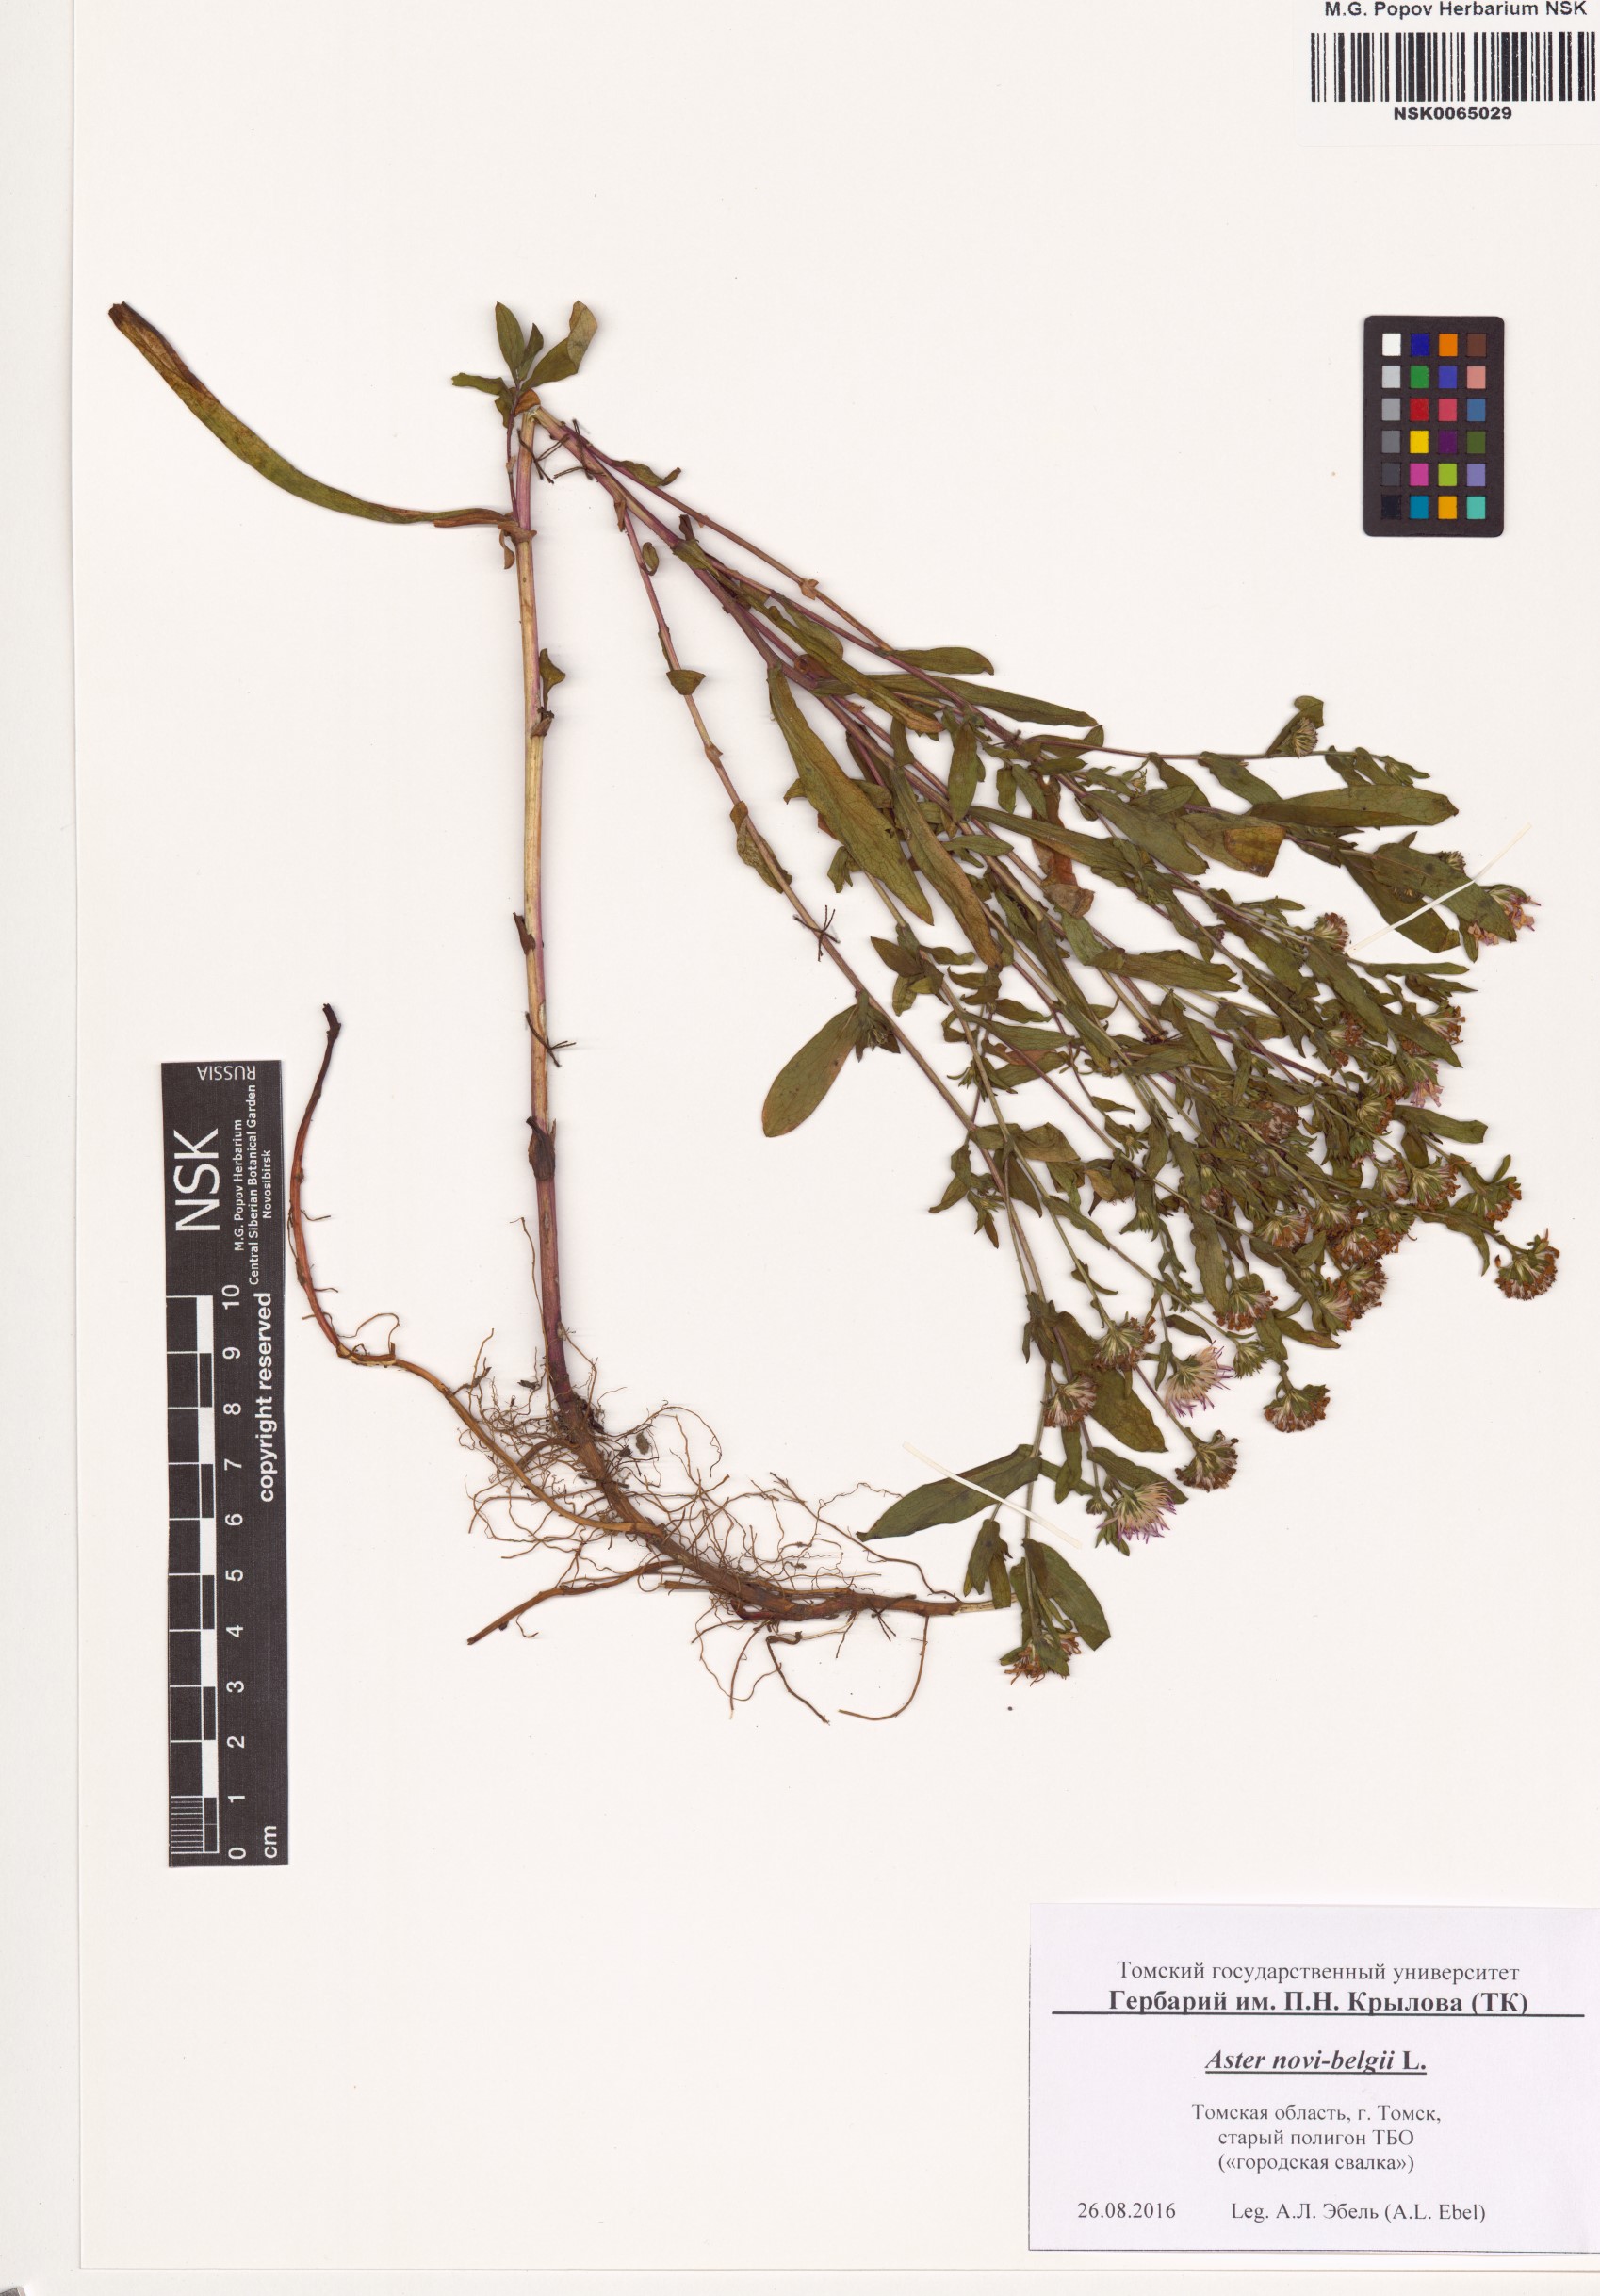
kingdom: Plantae
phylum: Tracheophyta
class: Magnoliopsida
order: Asterales
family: Asteraceae
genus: Symphyotrichum
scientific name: Symphyotrichum novi-belgii
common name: Michaelmas daisy
